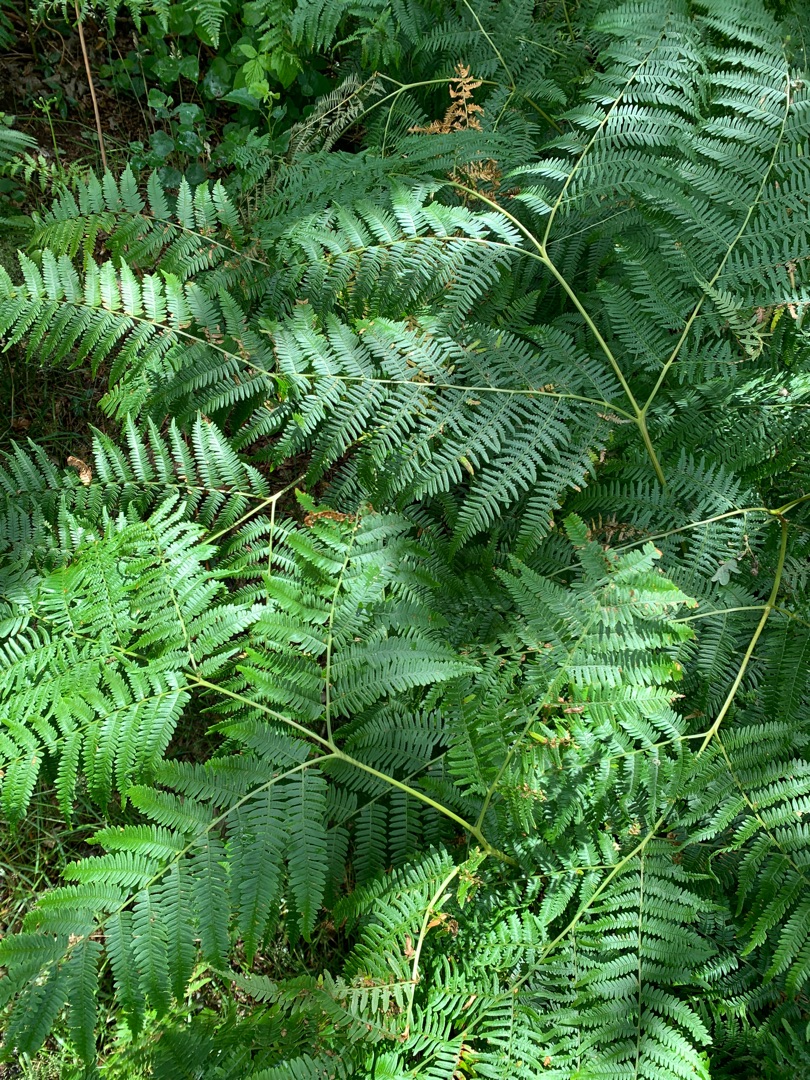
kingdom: Plantae
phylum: Tracheophyta
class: Polypodiopsida
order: Polypodiales
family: Dennstaedtiaceae
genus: Pteridium
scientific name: Pteridium aquilinum
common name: Ørnebregne
